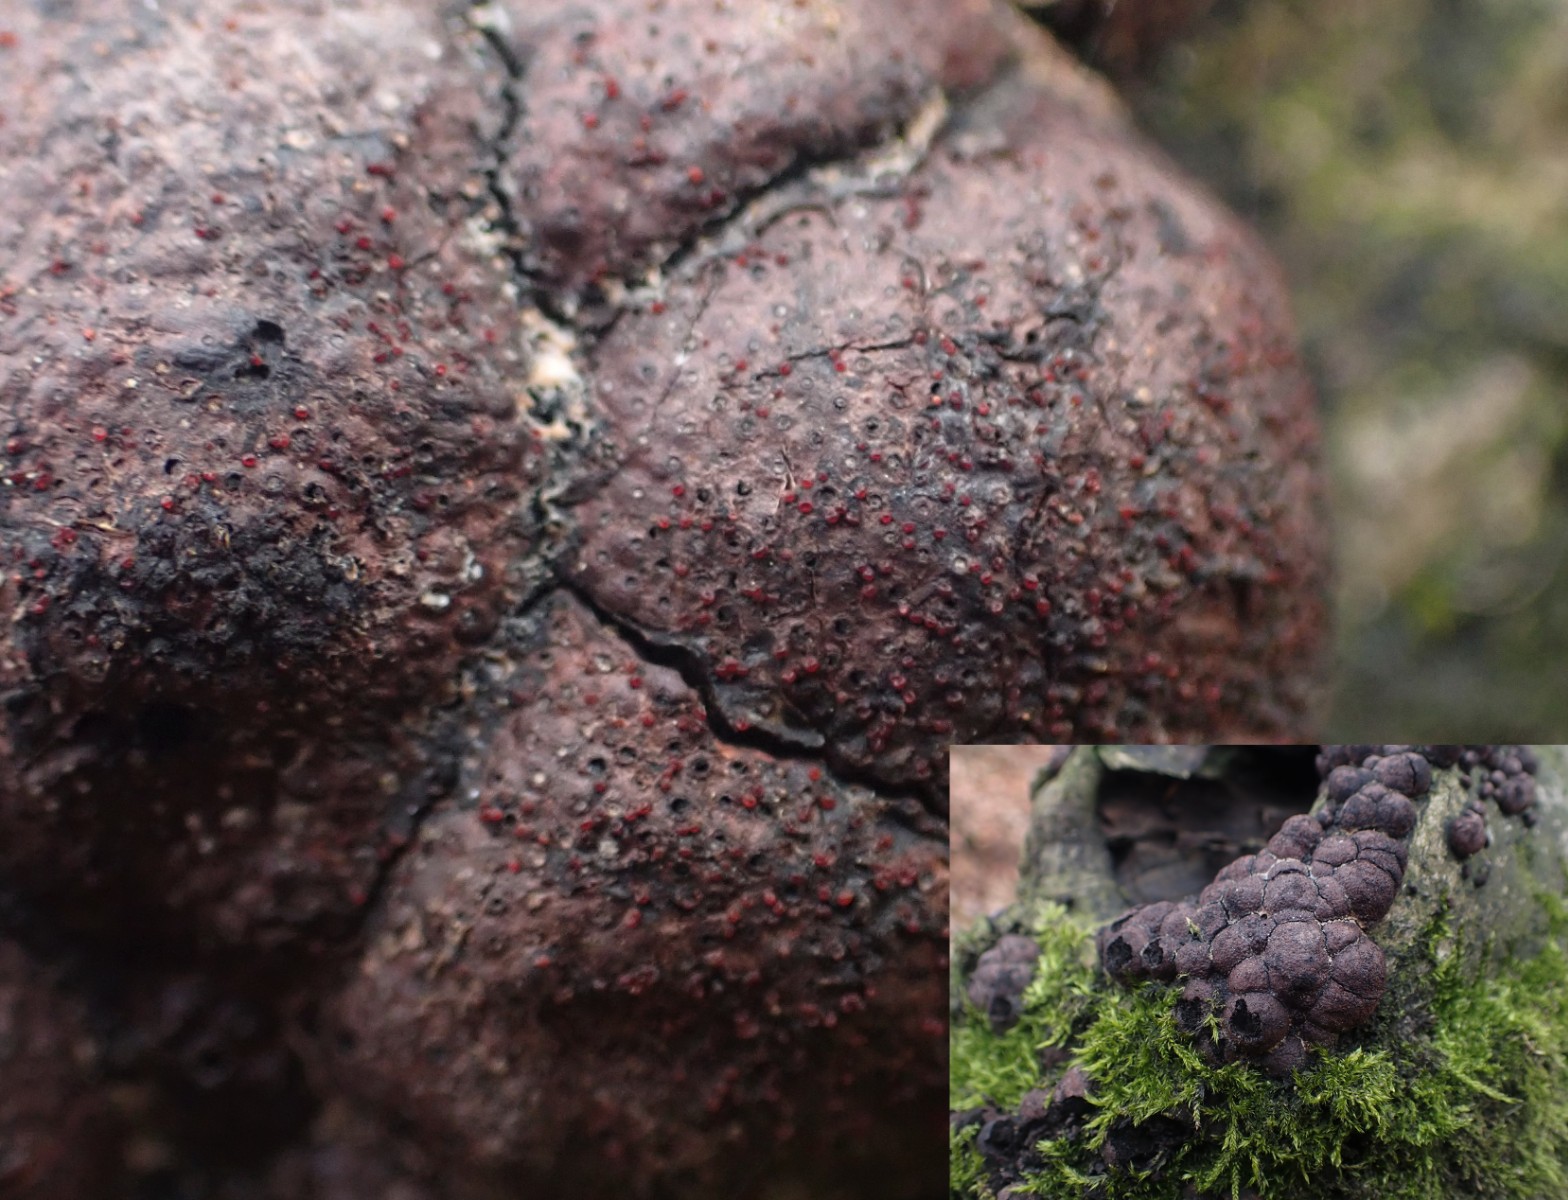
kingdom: Fungi
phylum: Ascomycota
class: Sordariomycetes
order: Hypocreales
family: Nectriaceae
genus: Cosmospora
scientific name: Cosmospora arxii
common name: kuljordbær-cinnobersvamp
